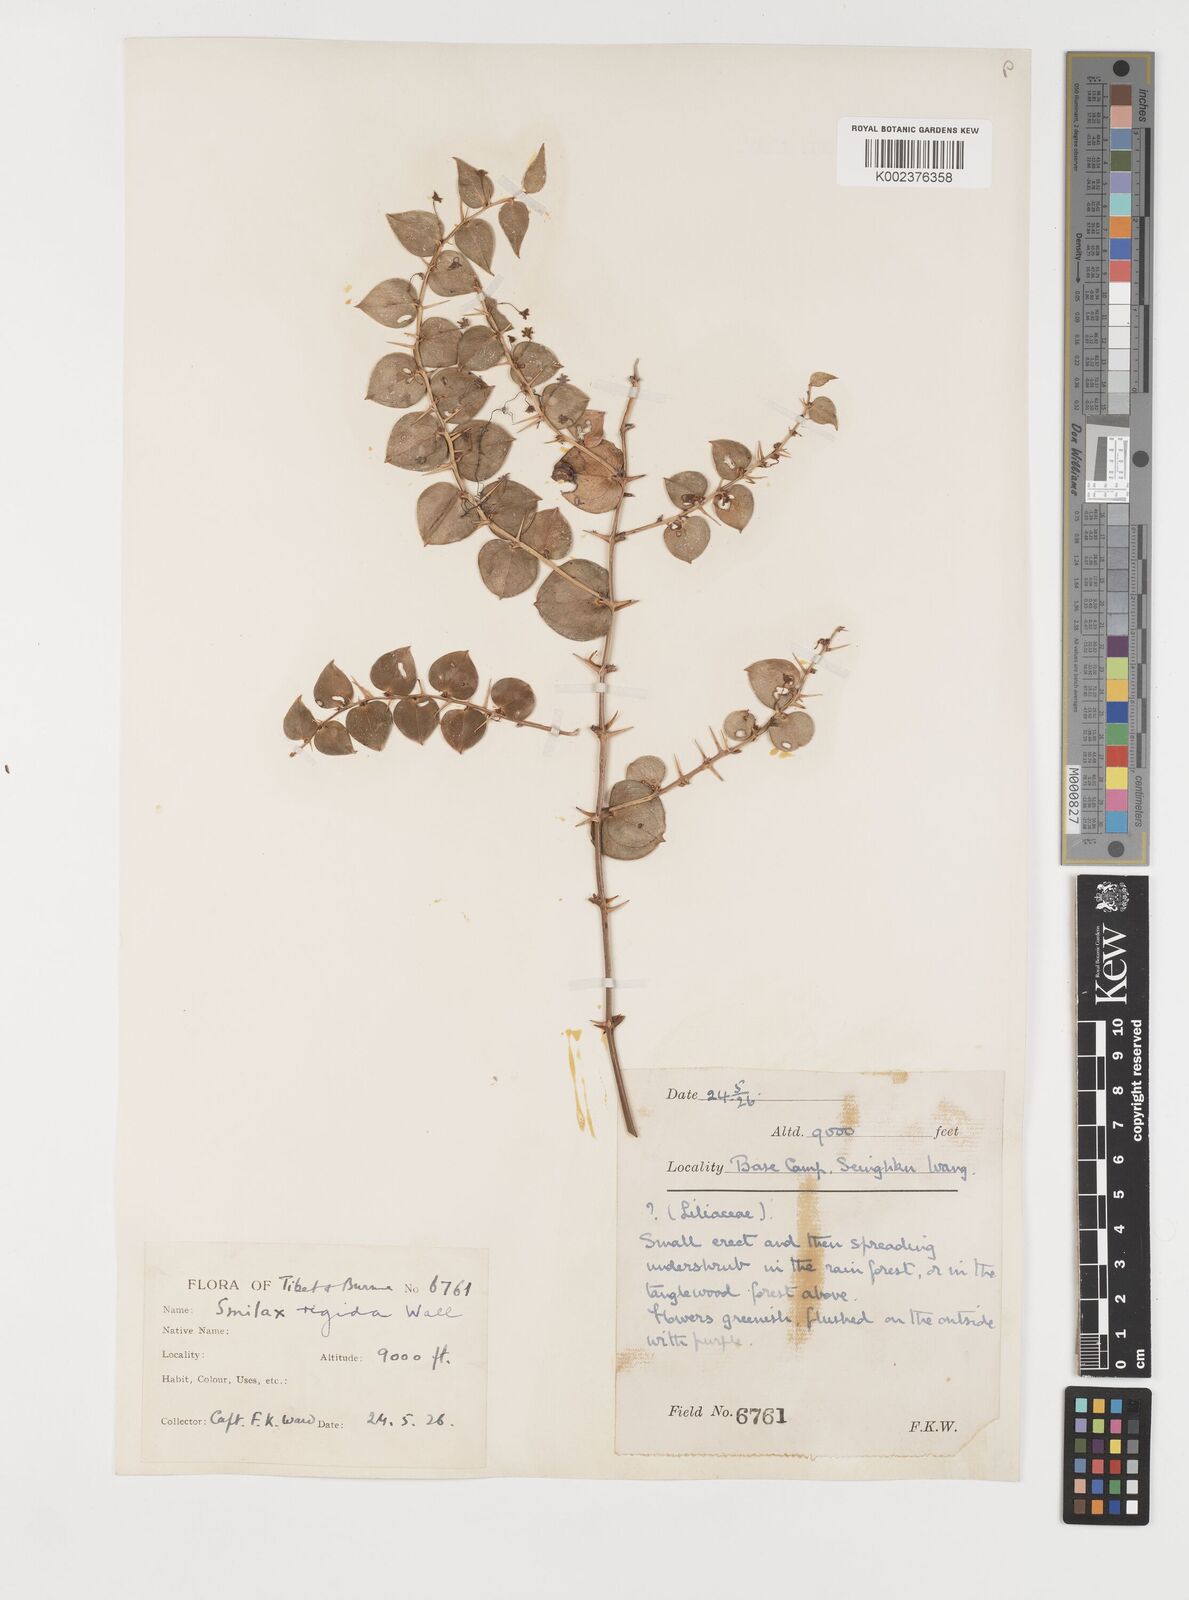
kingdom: Plantae
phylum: Tracheophyta
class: Liliopsida
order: Liliales
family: Smilacaceae
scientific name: Smilacaceae
